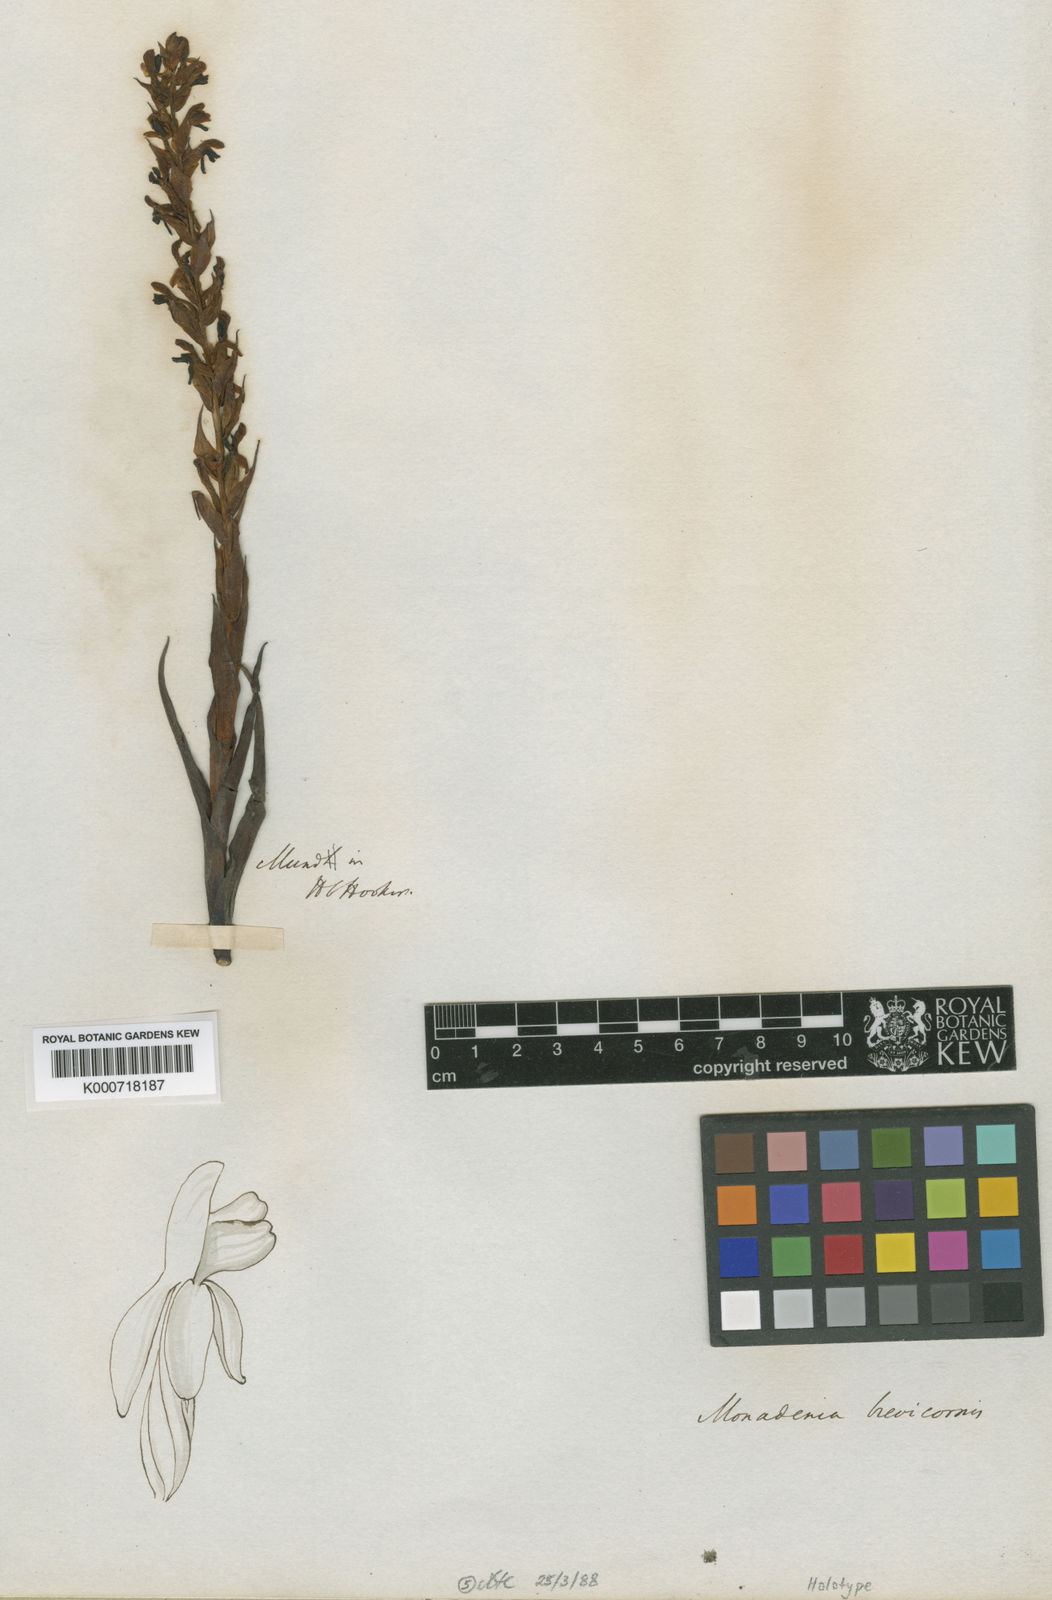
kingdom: Plantae
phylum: Tracheophyta
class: Liliopsida
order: Asparagales
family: Orchidaceae
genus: Disa
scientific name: Disa brevicornis
